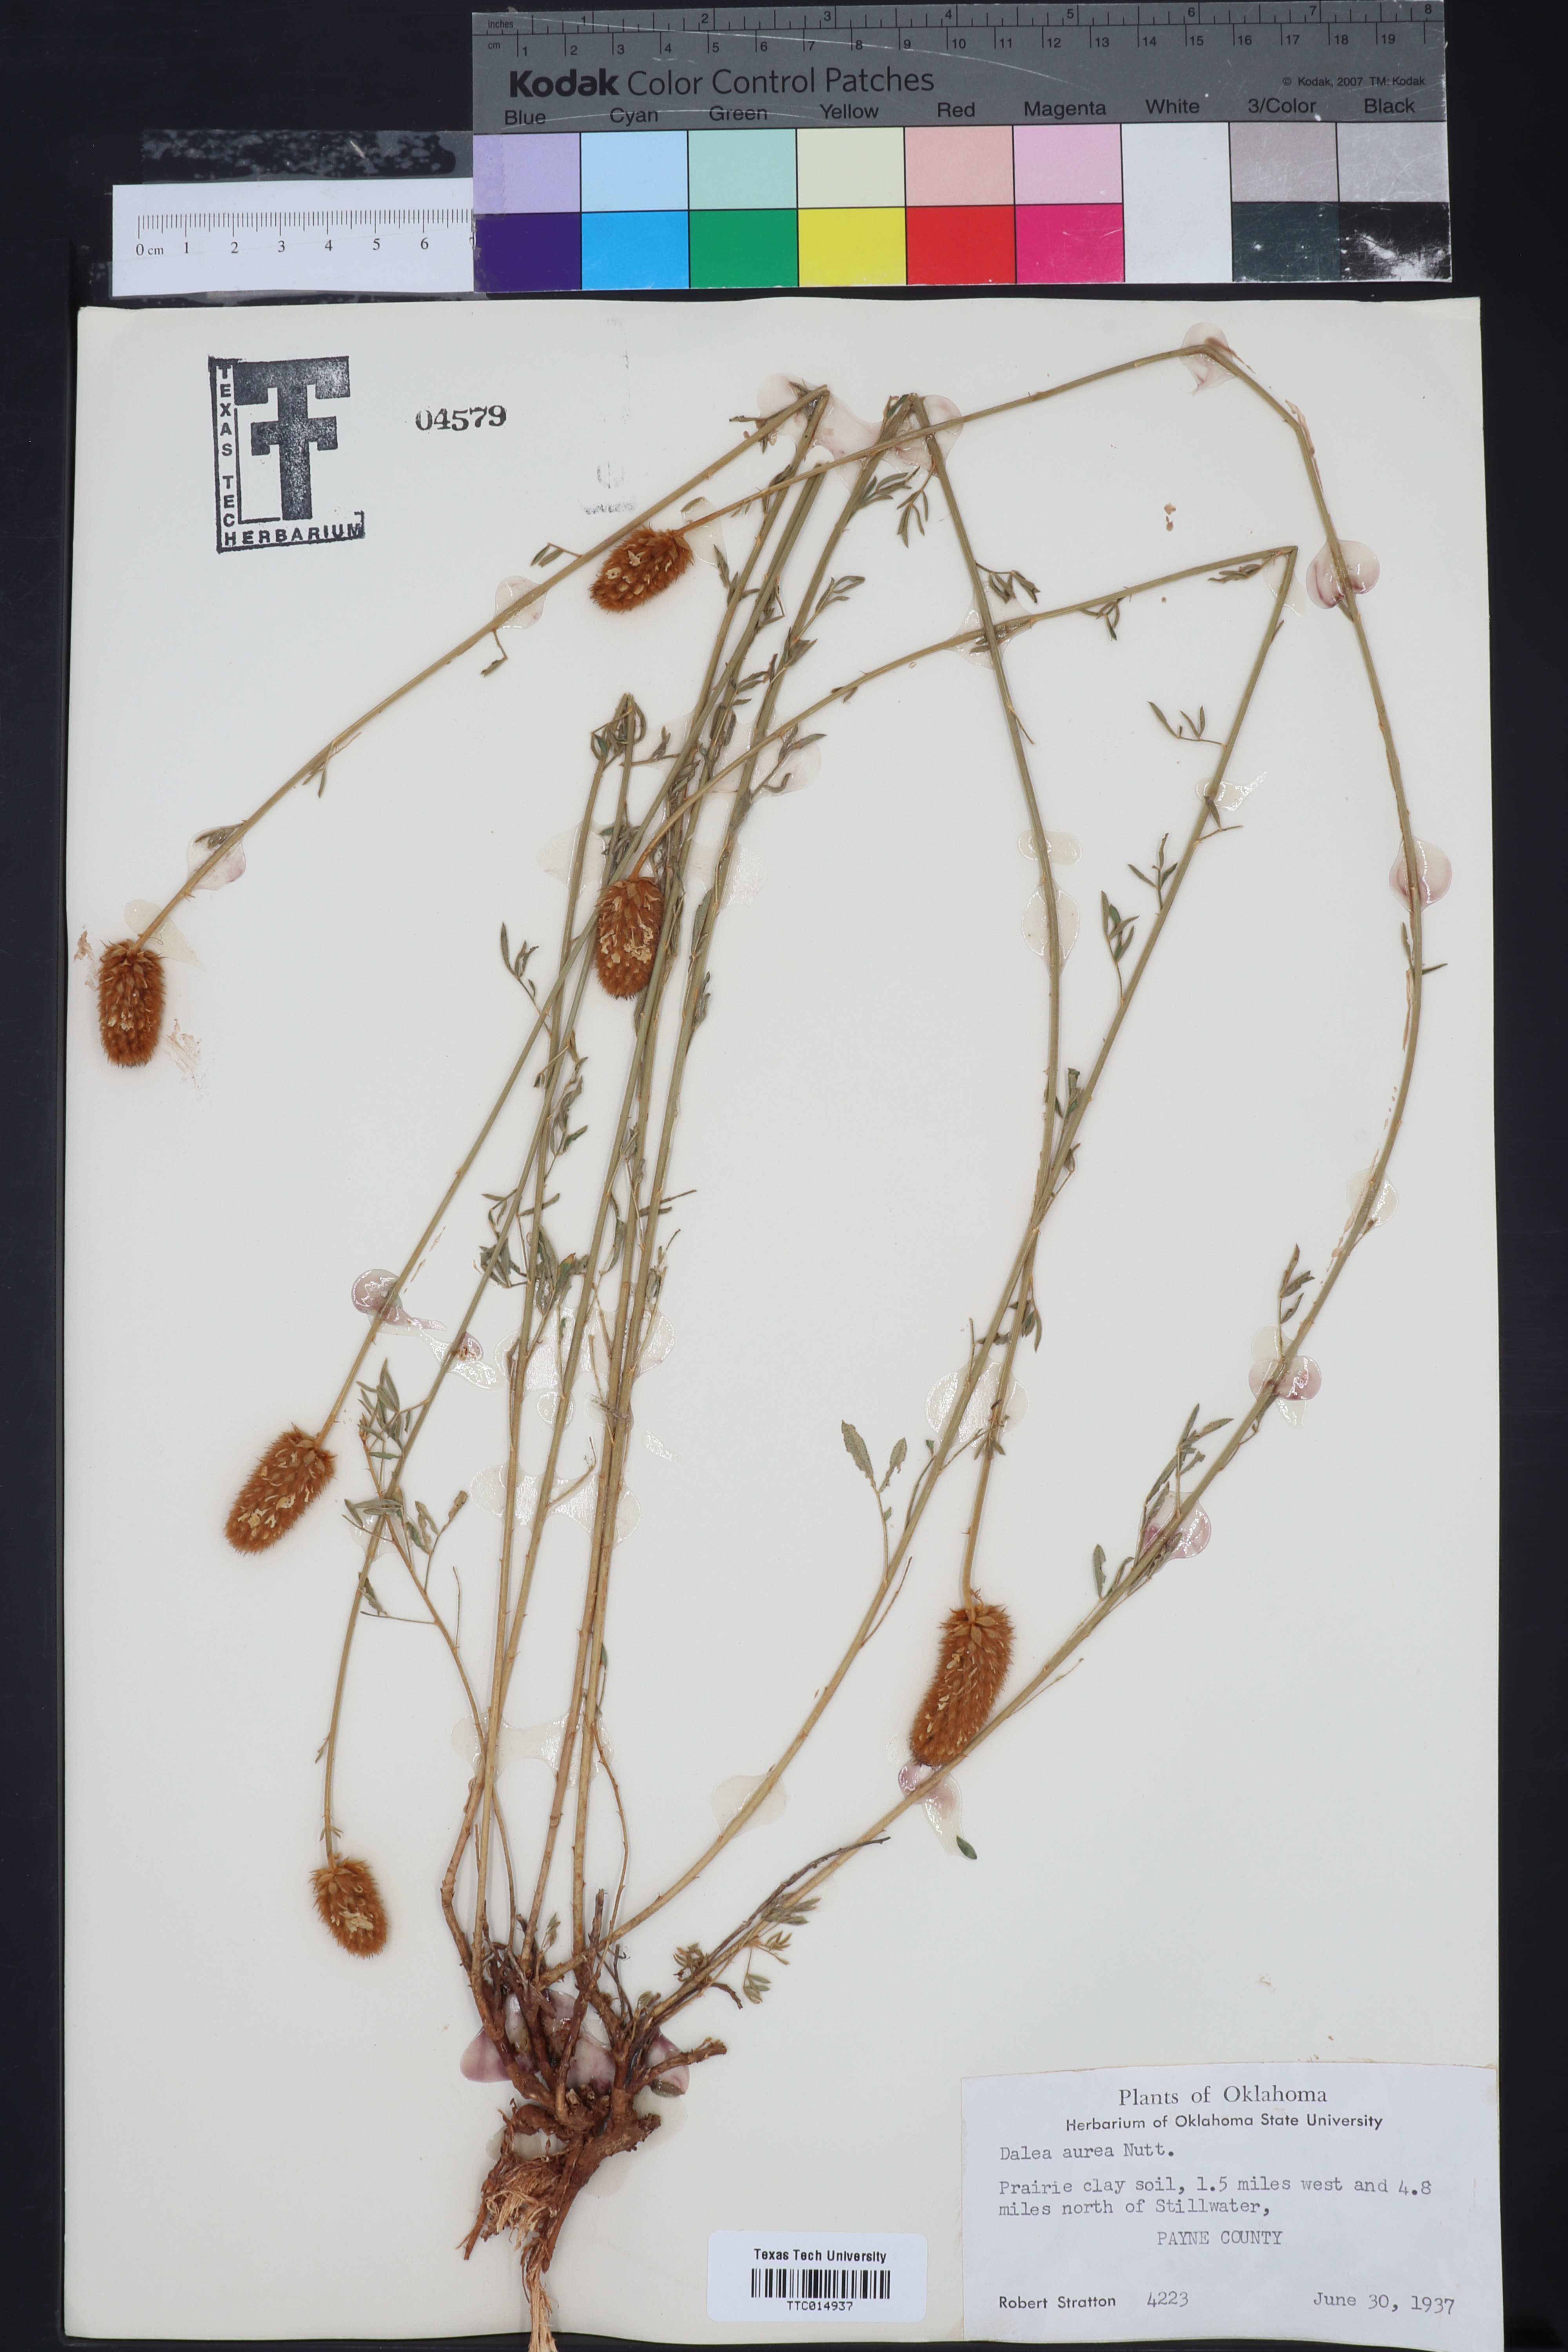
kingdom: Plantae
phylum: Tracheophyta
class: Magnoliopsida
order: Fabales
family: Fabaceae
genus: Dalea
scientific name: Dalea aurea
